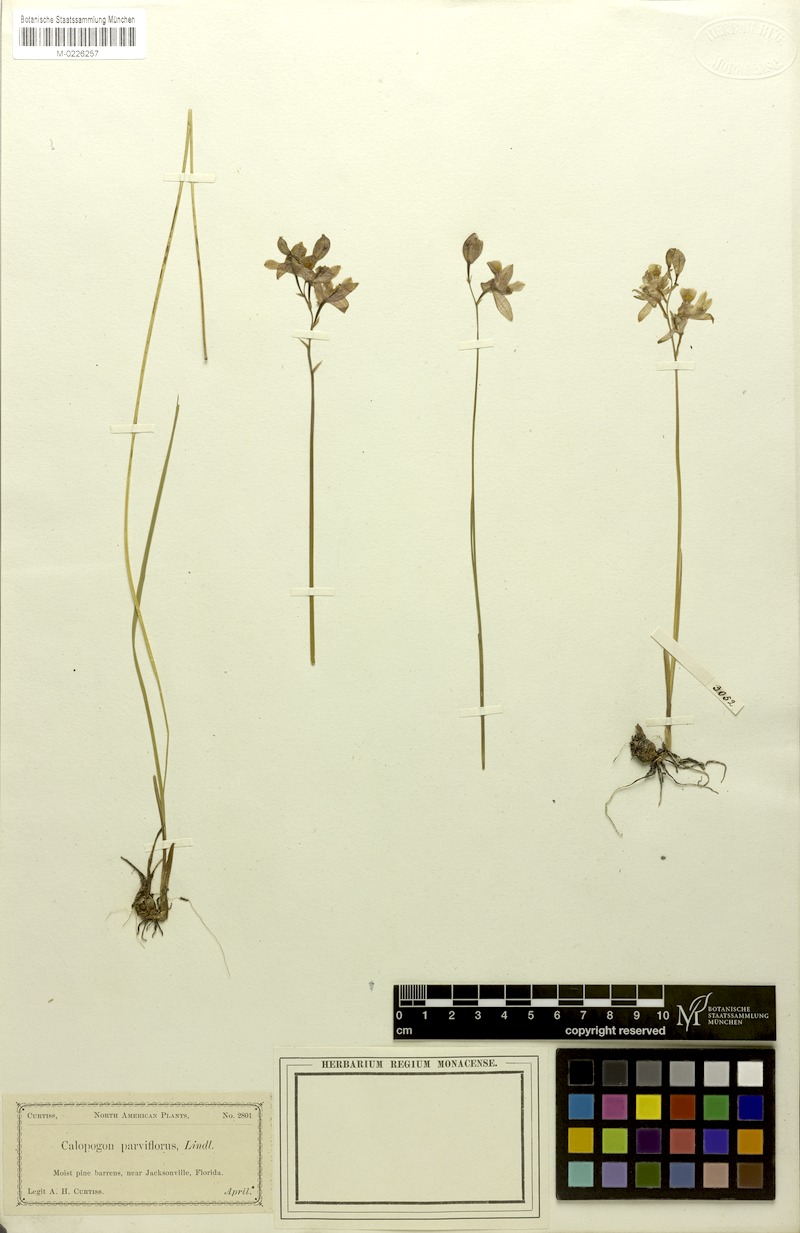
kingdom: Plantae
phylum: Tracheophyta
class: Liliopsida
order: Asparagales
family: Orchidaceae
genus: Calopogon
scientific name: Calopogon barbatus
